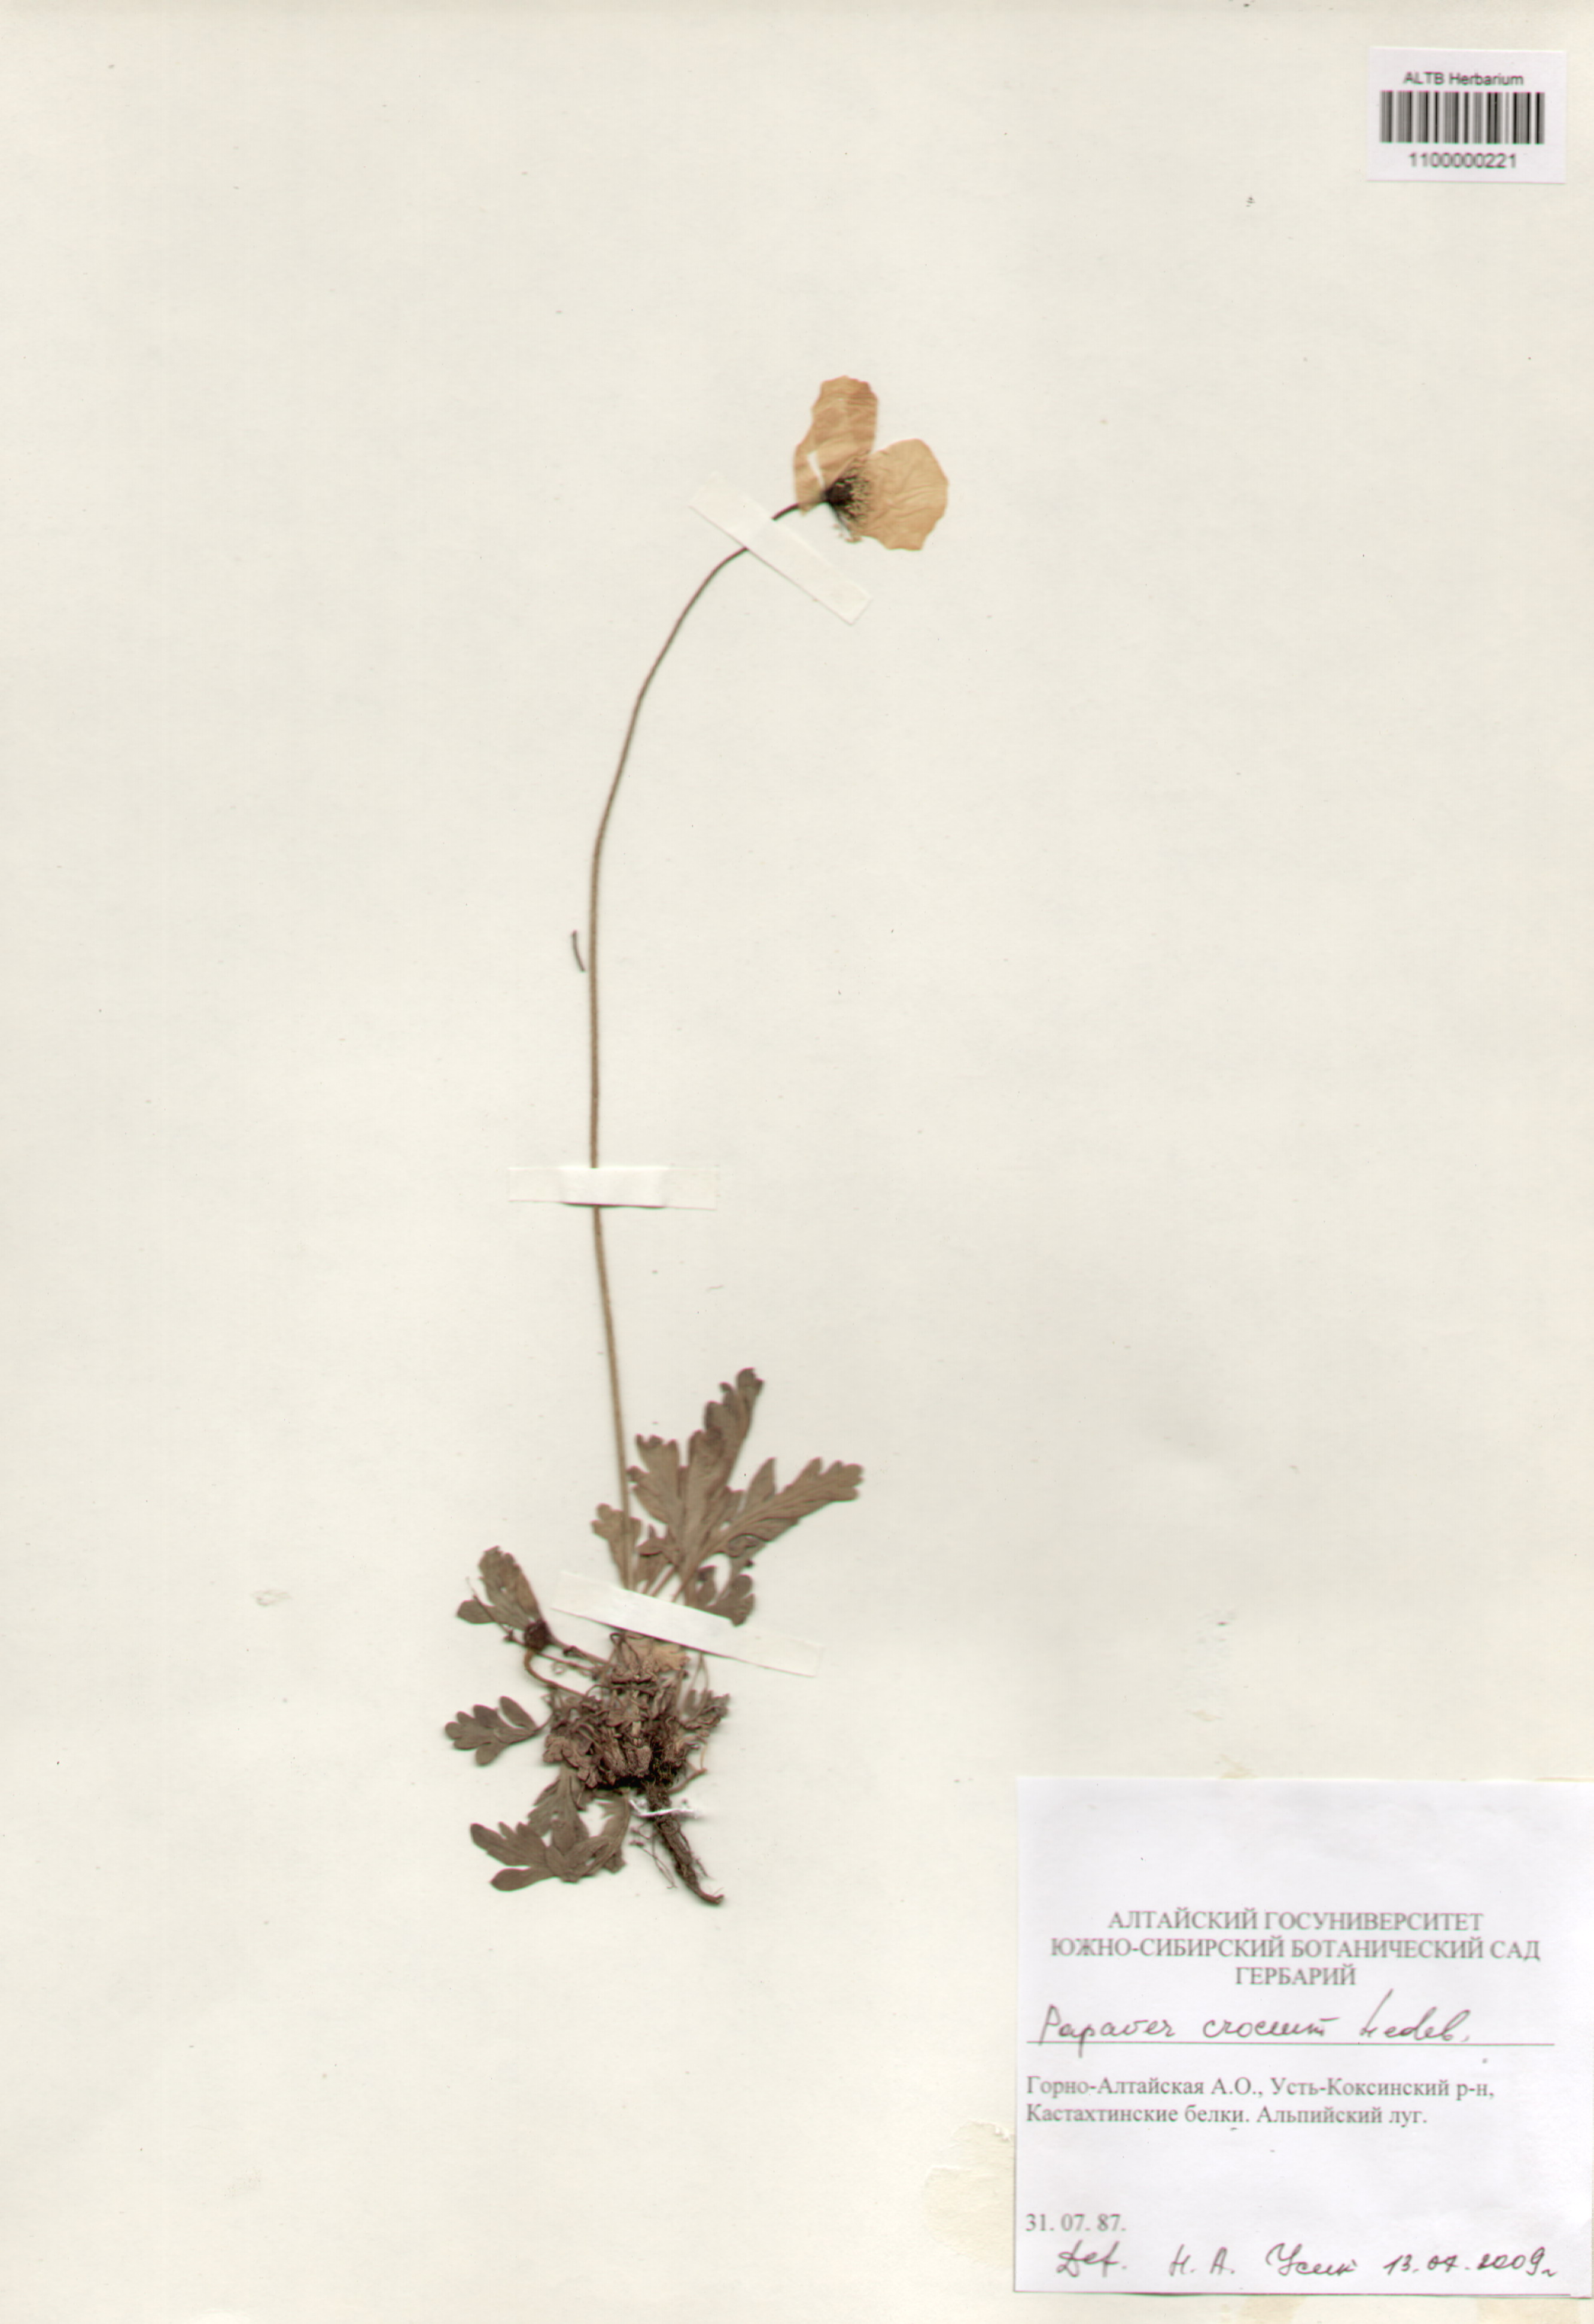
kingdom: Plantae
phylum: Tracheophyta
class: Magnoliopsida
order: Ranunculales
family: Papaveraceae
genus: Papaver
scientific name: Papaver canescens
